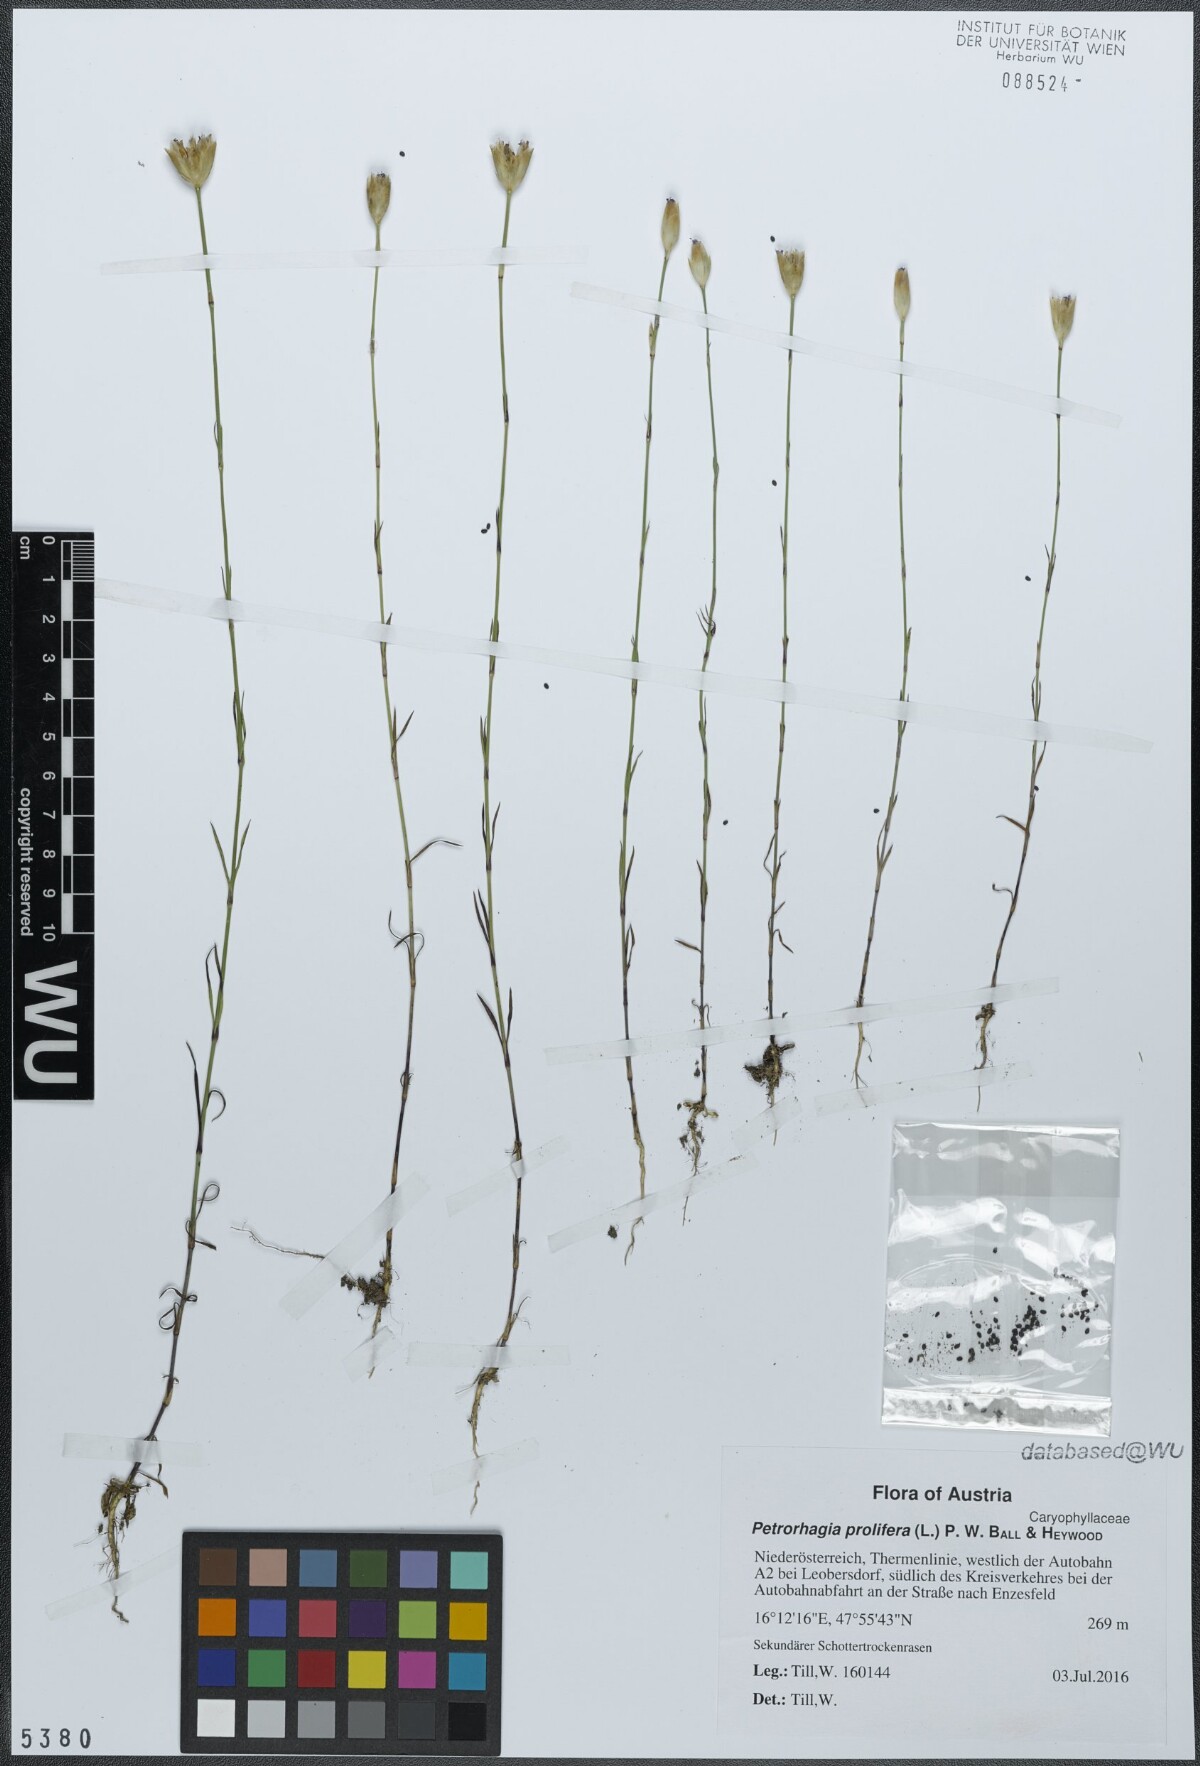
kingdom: Plantae
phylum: Tracheophyta
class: Magnoliopsida
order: Caryophyllales
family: Caryophyllaceae
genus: Petrorhagia
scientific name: Petrorhagia prolifera
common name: Proliferous pink
